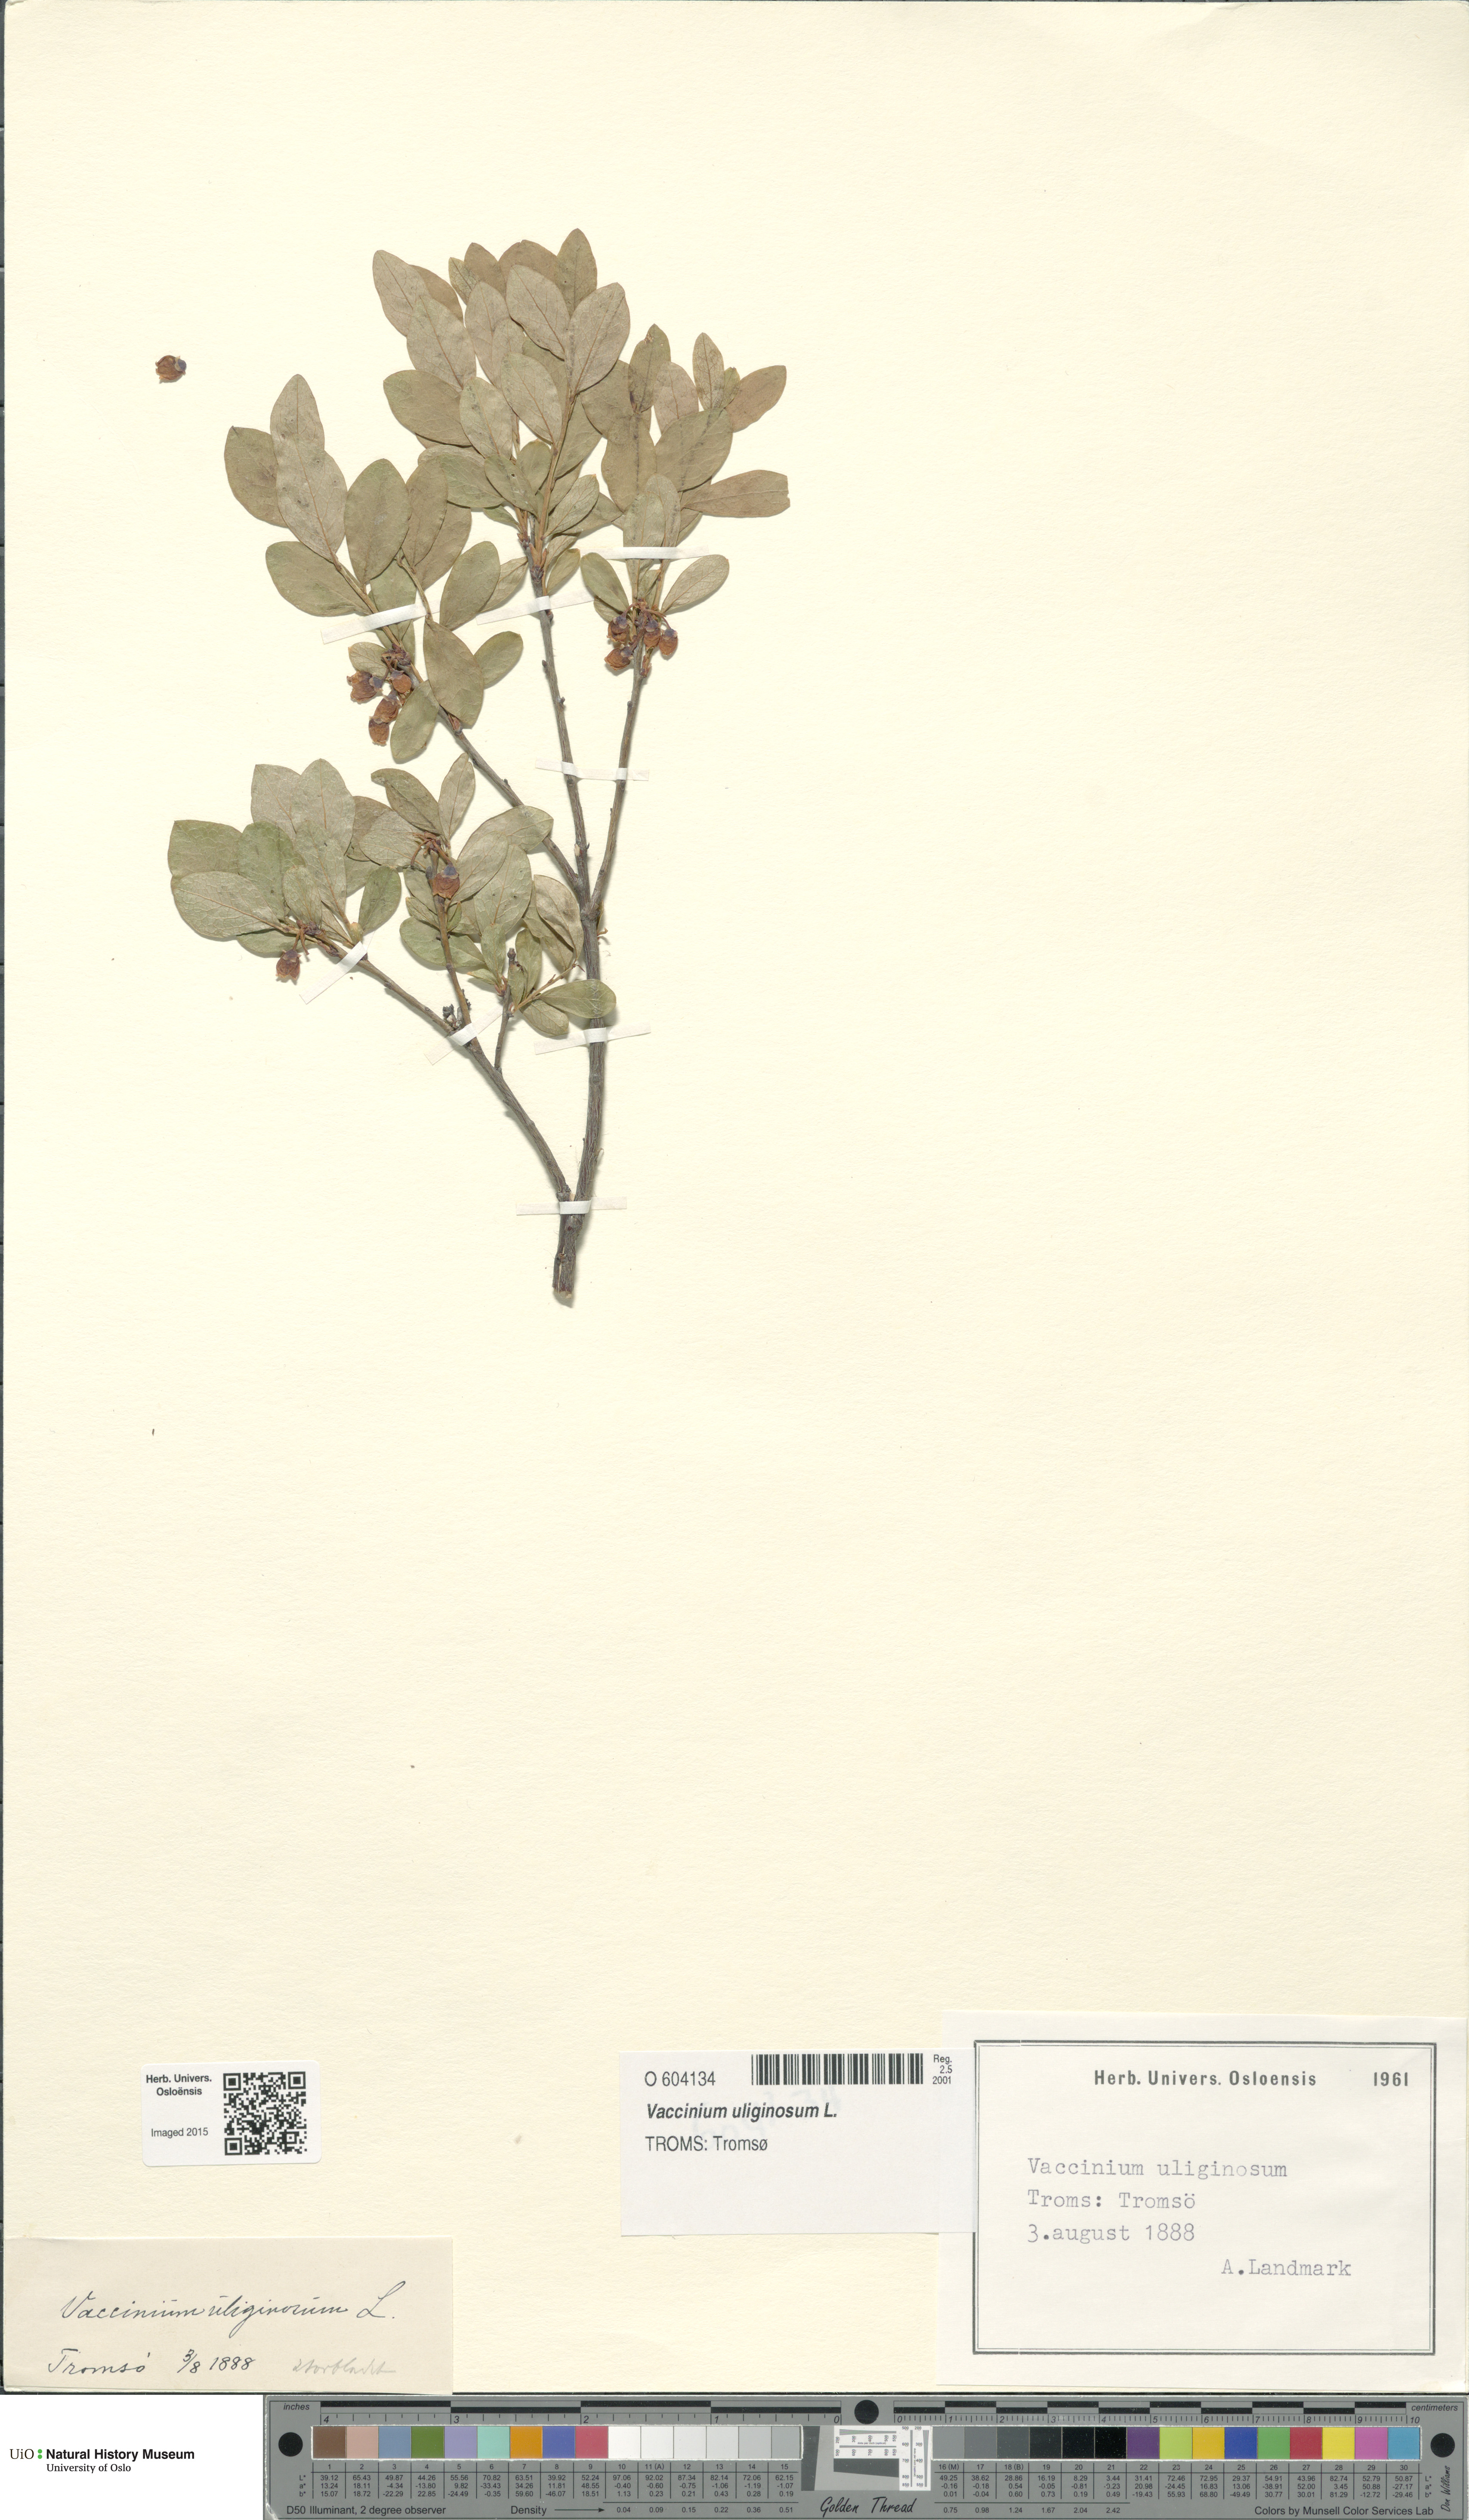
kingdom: Plantae
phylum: Tracheophyta
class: Magnoliopsida
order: Ericales
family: Ericaceae
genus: Vaccinium
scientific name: Vaccinium uliginosum
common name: Bog bilberry
